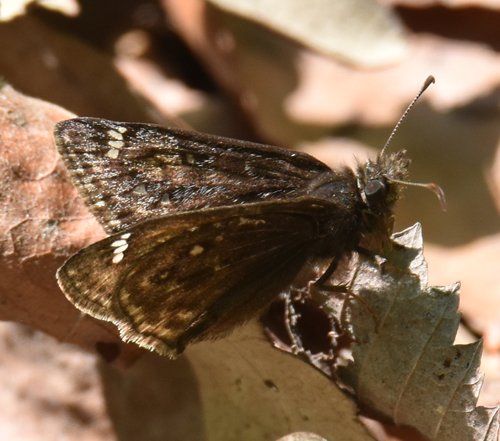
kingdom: Animalia
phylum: Arthropoda
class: Insecta
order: Lepidoptera
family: Hesperiidae
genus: Gesta
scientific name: Gesta
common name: Juvenal's Duskywing
